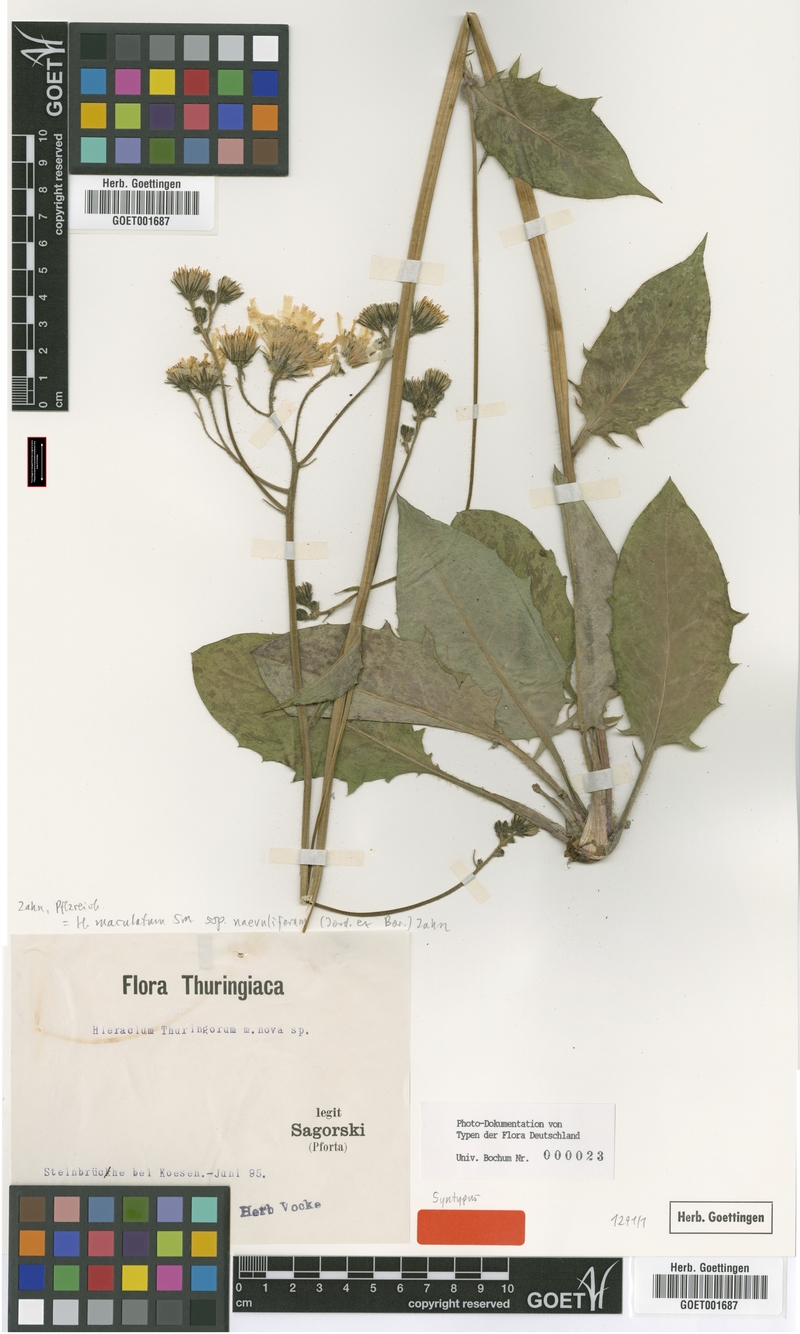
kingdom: Plantae
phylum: Tracheophyta
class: Magnoliopsida
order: Asterales
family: Asteraceae
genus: Hieracium
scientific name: Hieracium maculatum
